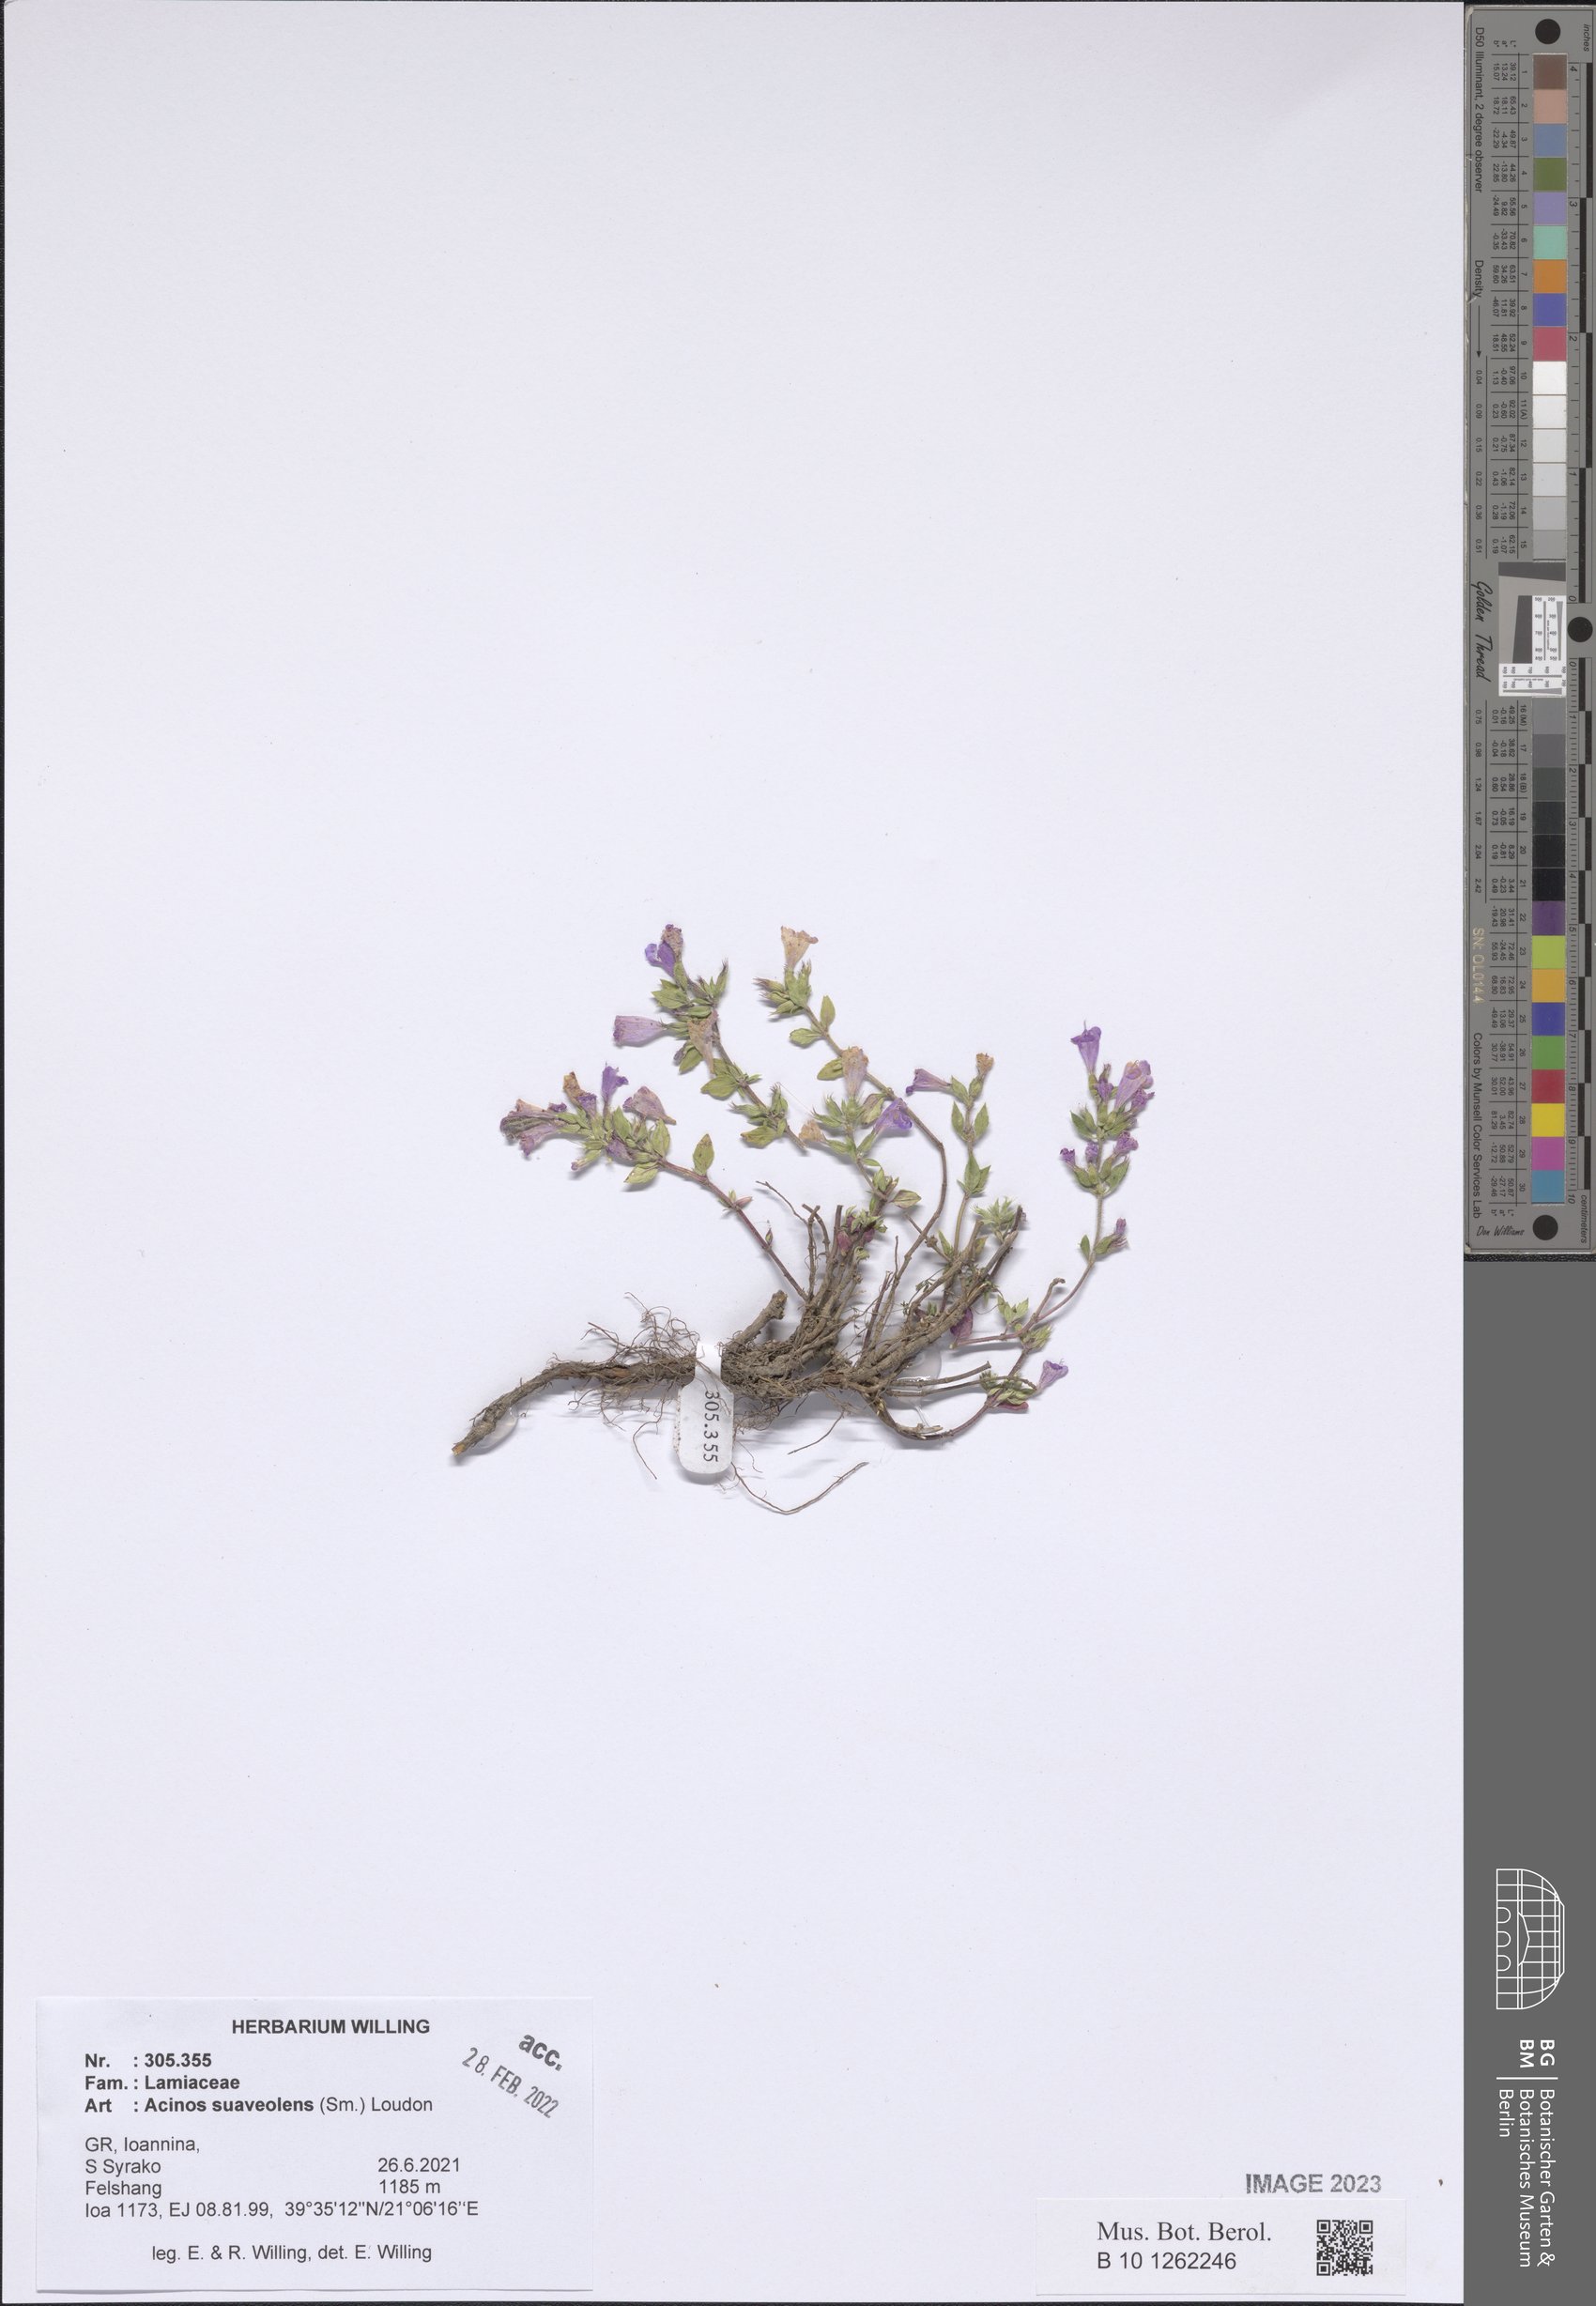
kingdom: Plantae
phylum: Tracheophyta
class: Magnoliopsida
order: Lamiales
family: Lamiaceae
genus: Clinopodium
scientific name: Clinopodium suaveolens
